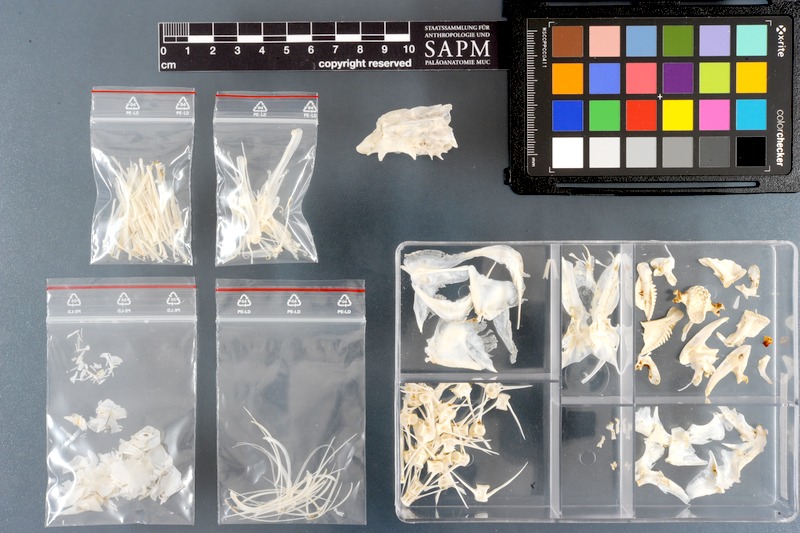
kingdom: Animalia
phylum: Chordata
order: Perciformes
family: Scaridae
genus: Scarus
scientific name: Scarus persicus
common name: Gulf parrotfish
